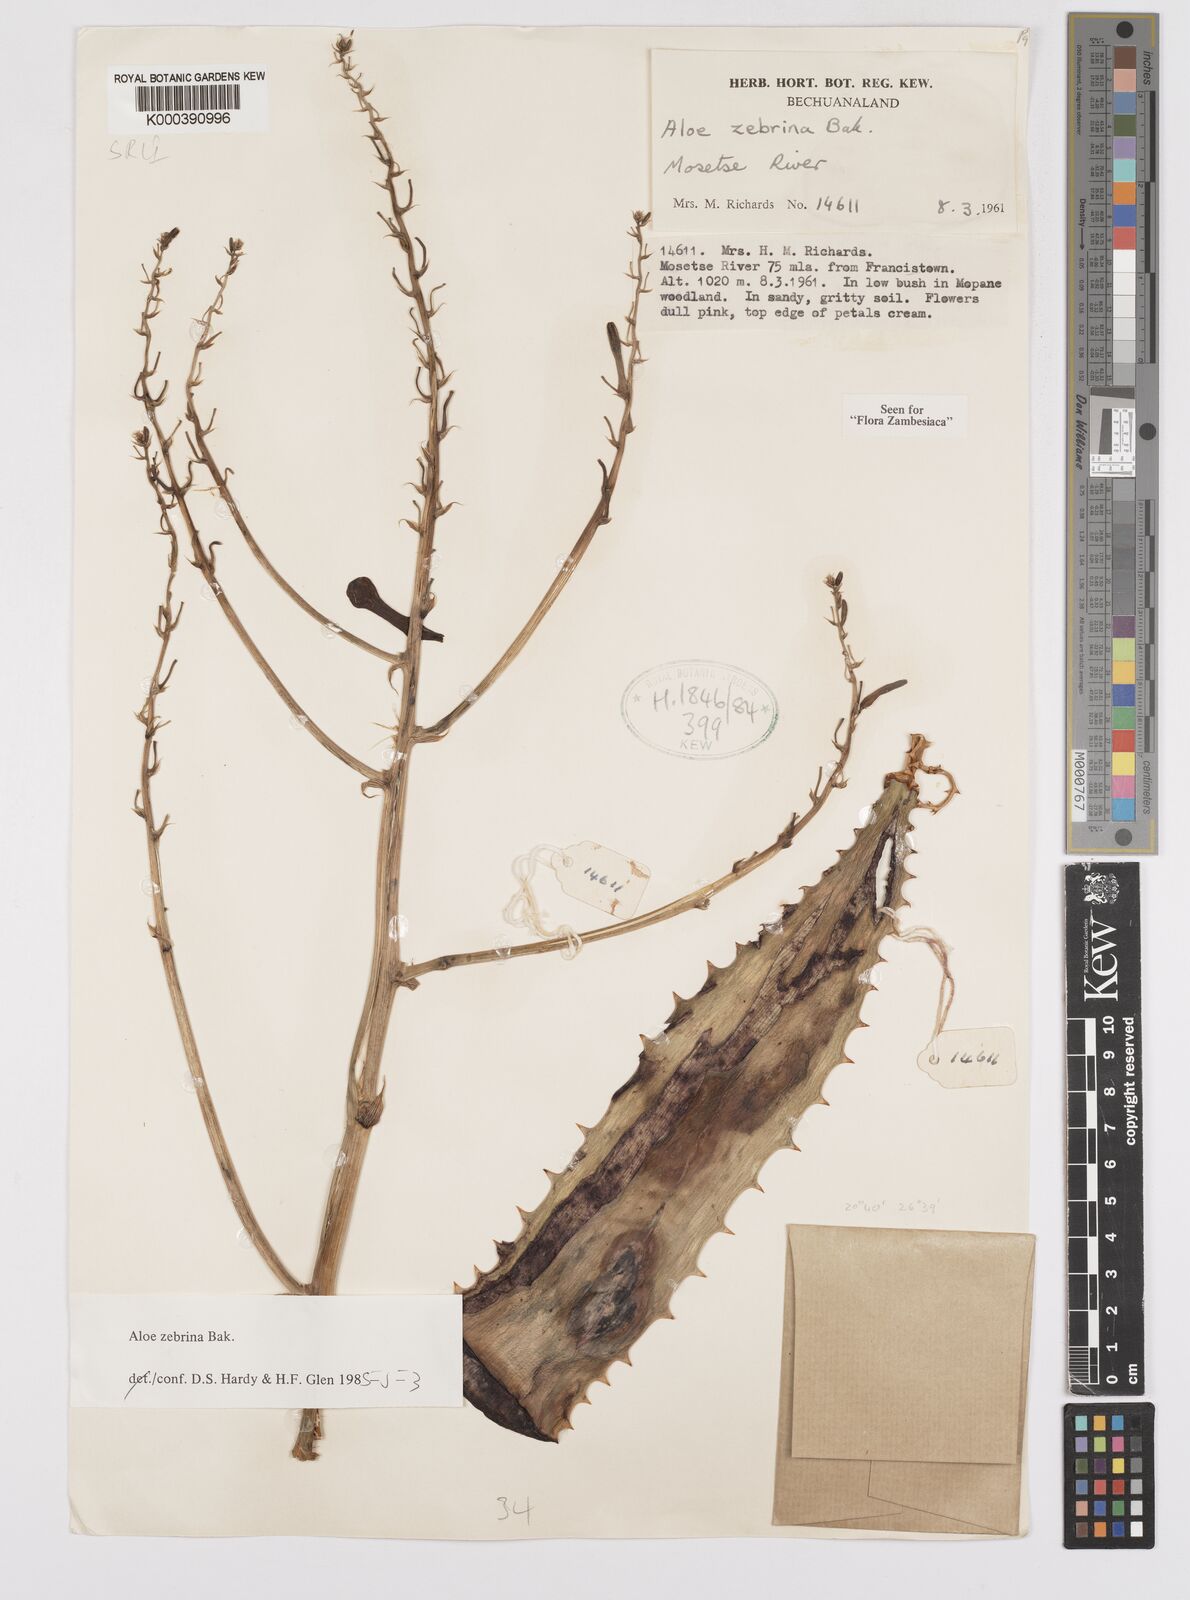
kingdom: Plantae
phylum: Tracheophyta
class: Liliopsida
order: Asparagales
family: Asphodelaceae
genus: Aloe
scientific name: Aloe zebrina
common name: Zebra-leaf aloe
